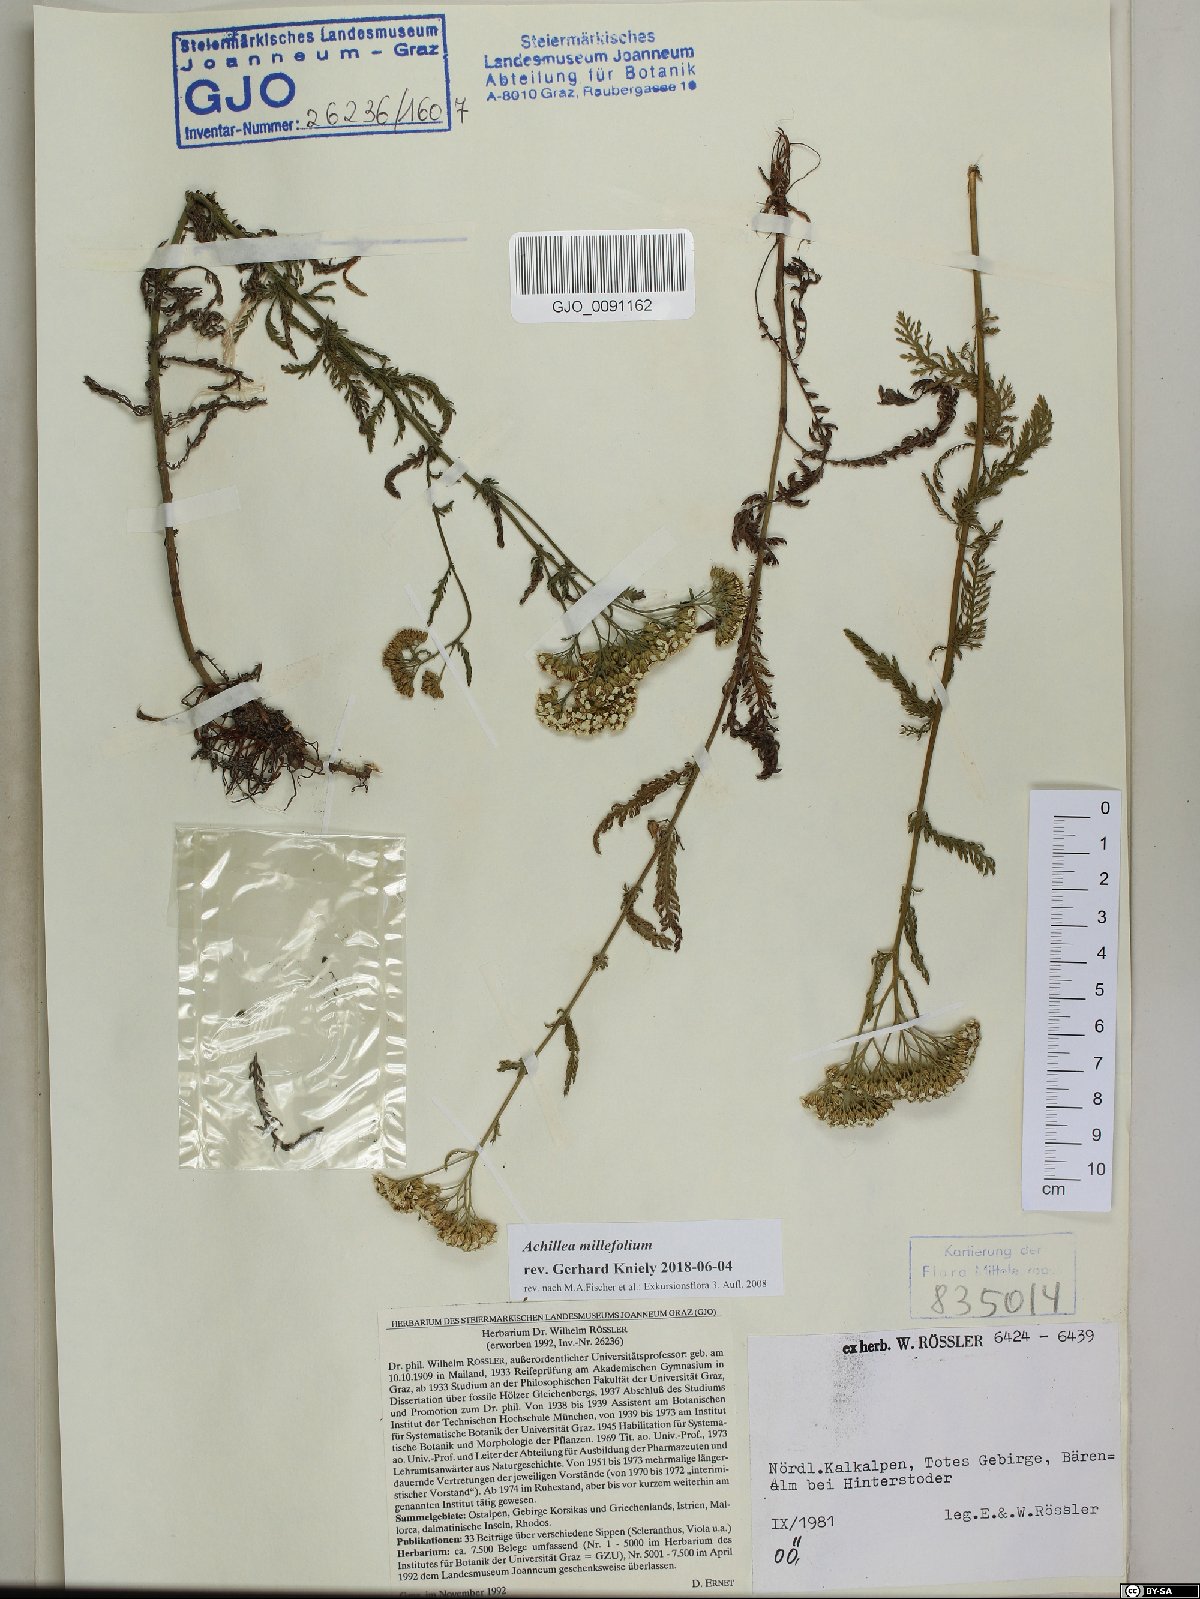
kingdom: Plantae
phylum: Tracheophyta
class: Magnoliopsida
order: Asterales
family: Asteraceae
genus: Achillea
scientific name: Achillea millefolium
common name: Yarrow
